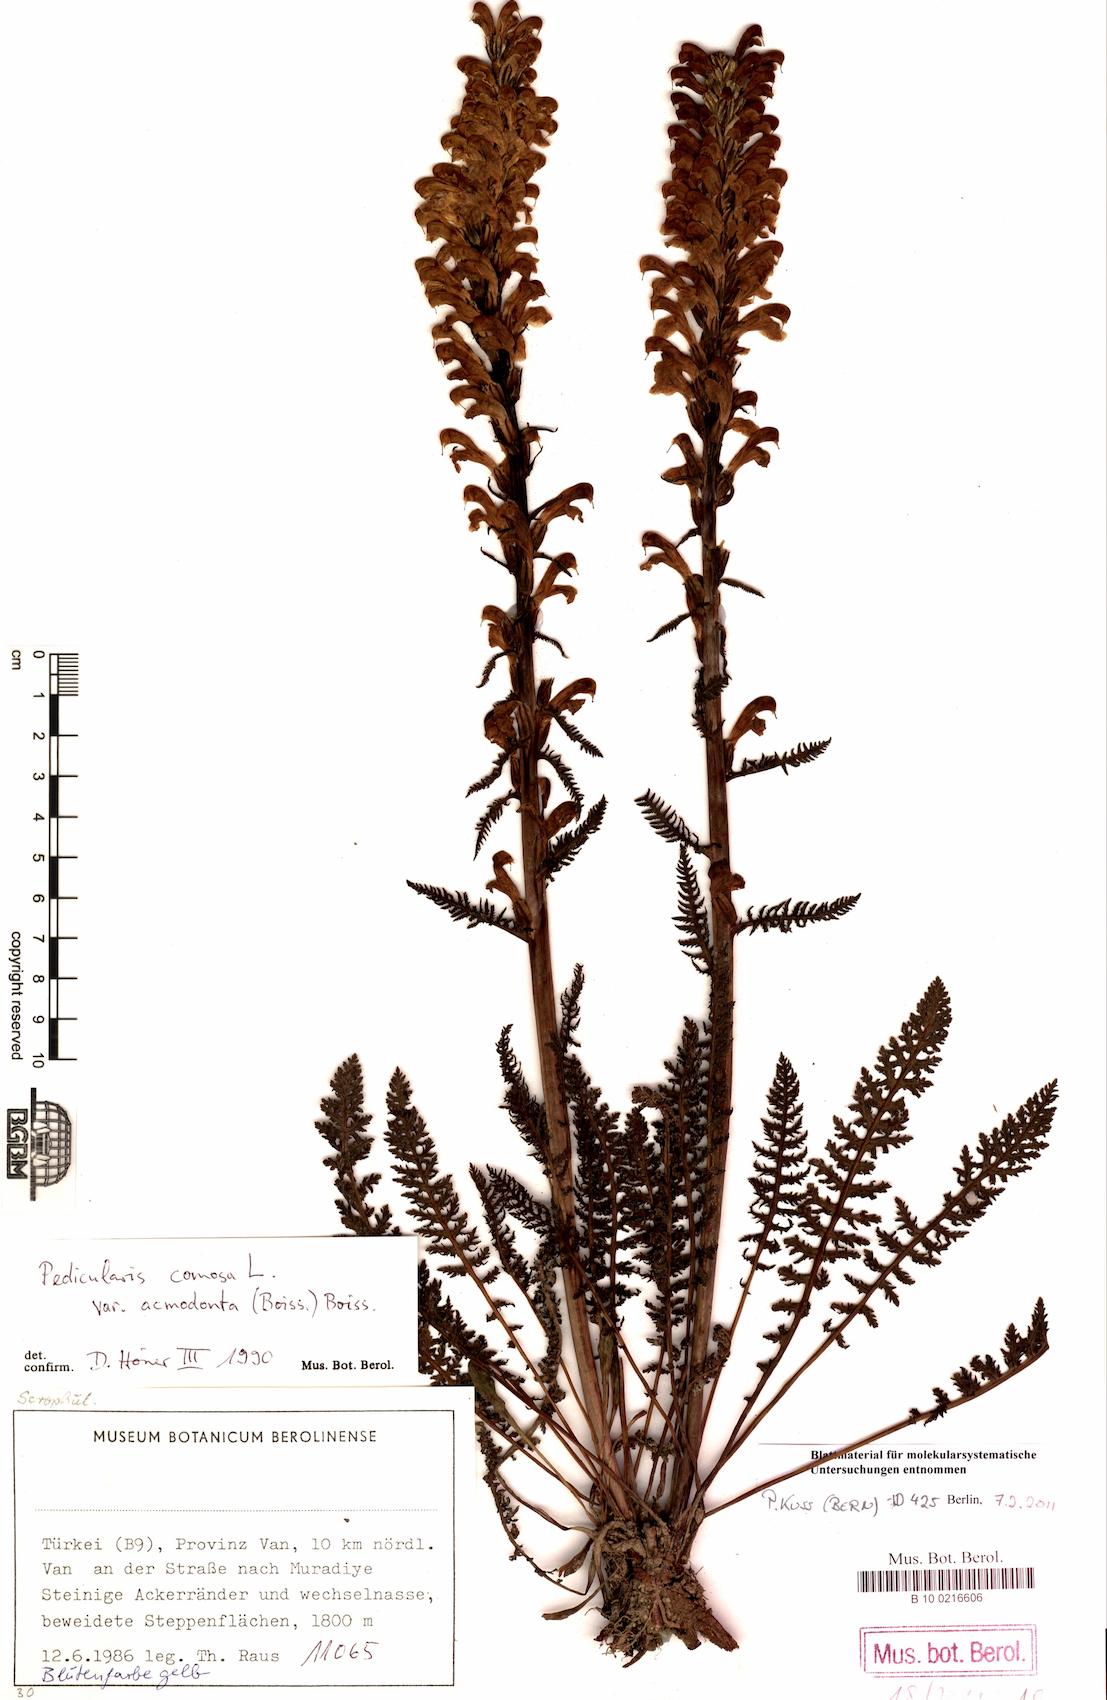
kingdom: Plantae
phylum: Tracheophyta
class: Magnoliopsida
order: Lamiales
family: Orobanchaceae
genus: Pedicularis
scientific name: Pedicularis acmodonta
